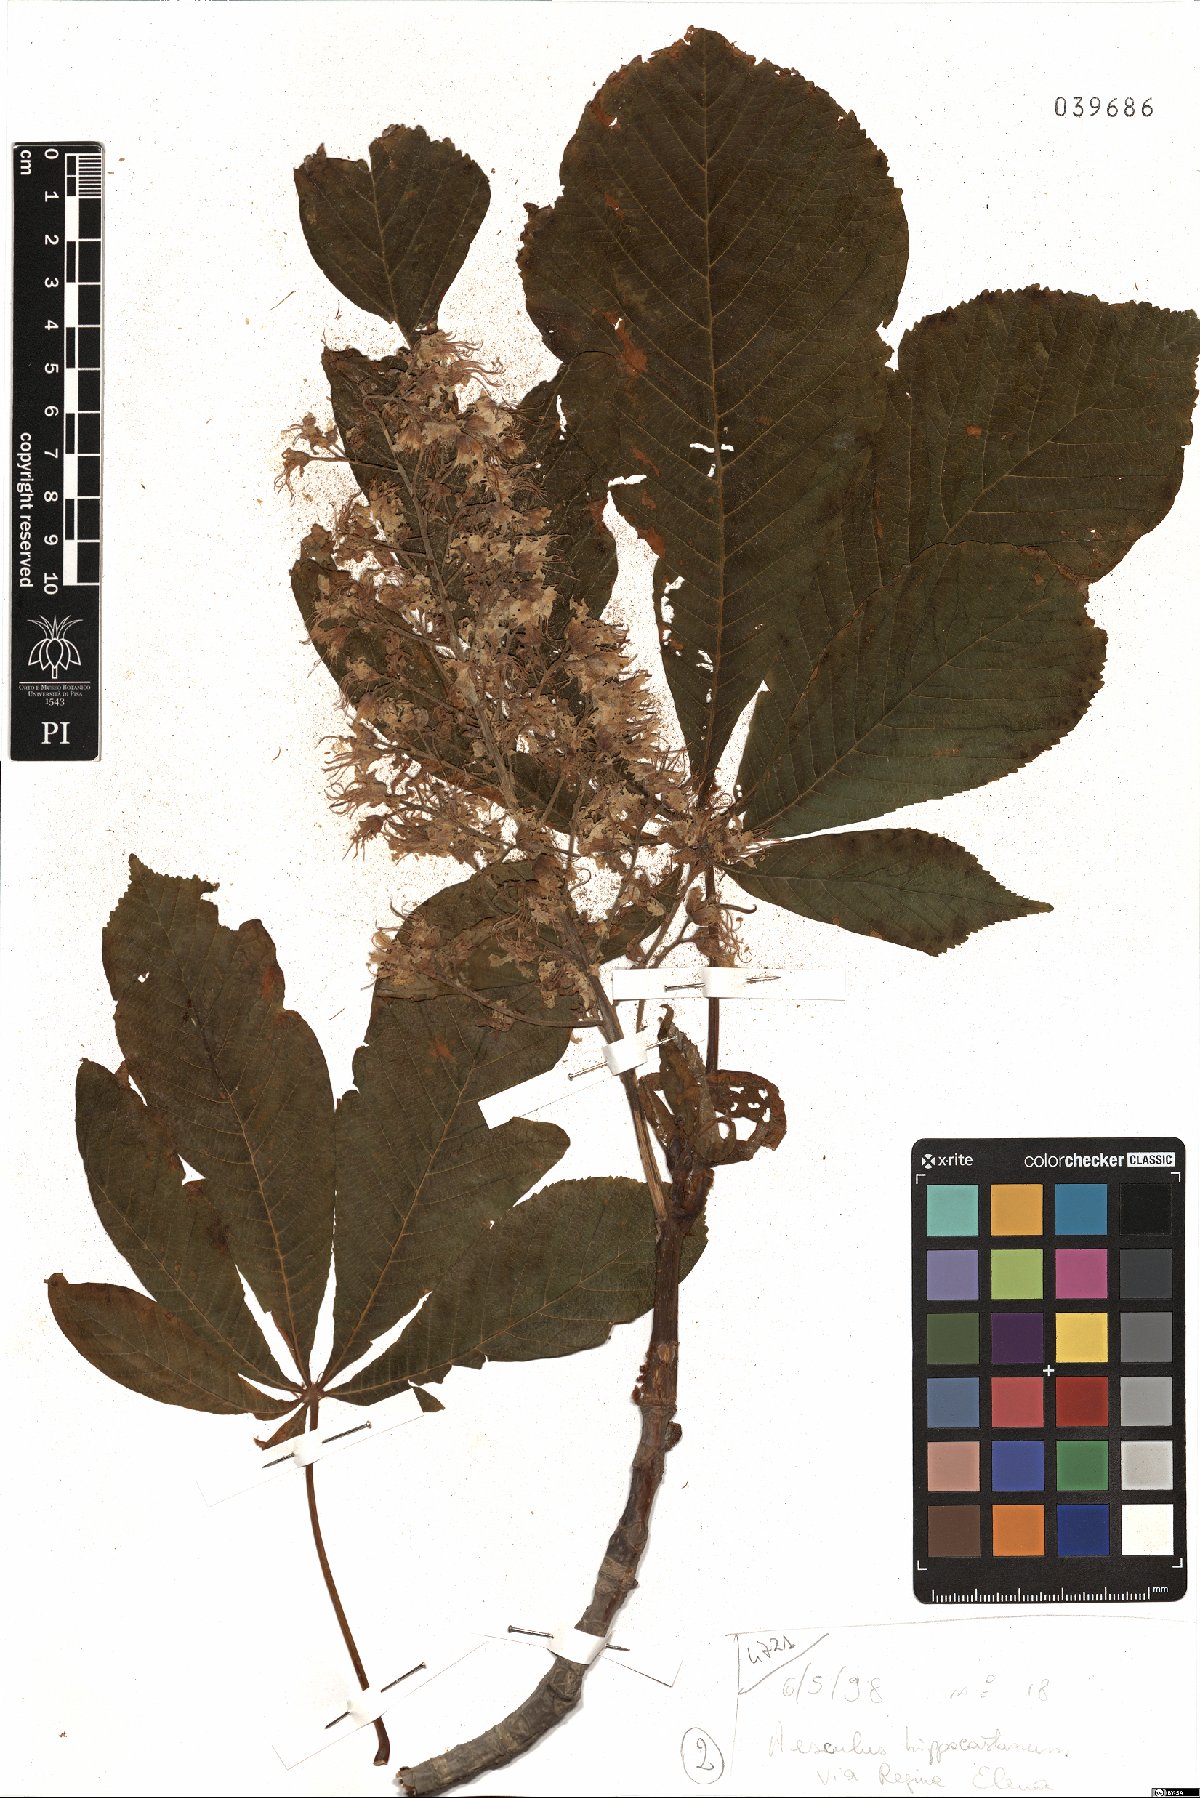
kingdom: Plantae
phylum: Tracheophyta
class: Magnoliopsida
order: Sapindales
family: Sapindaceae
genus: Aesculus
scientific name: Aesculus hippocastanum
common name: Horse-chestnut
